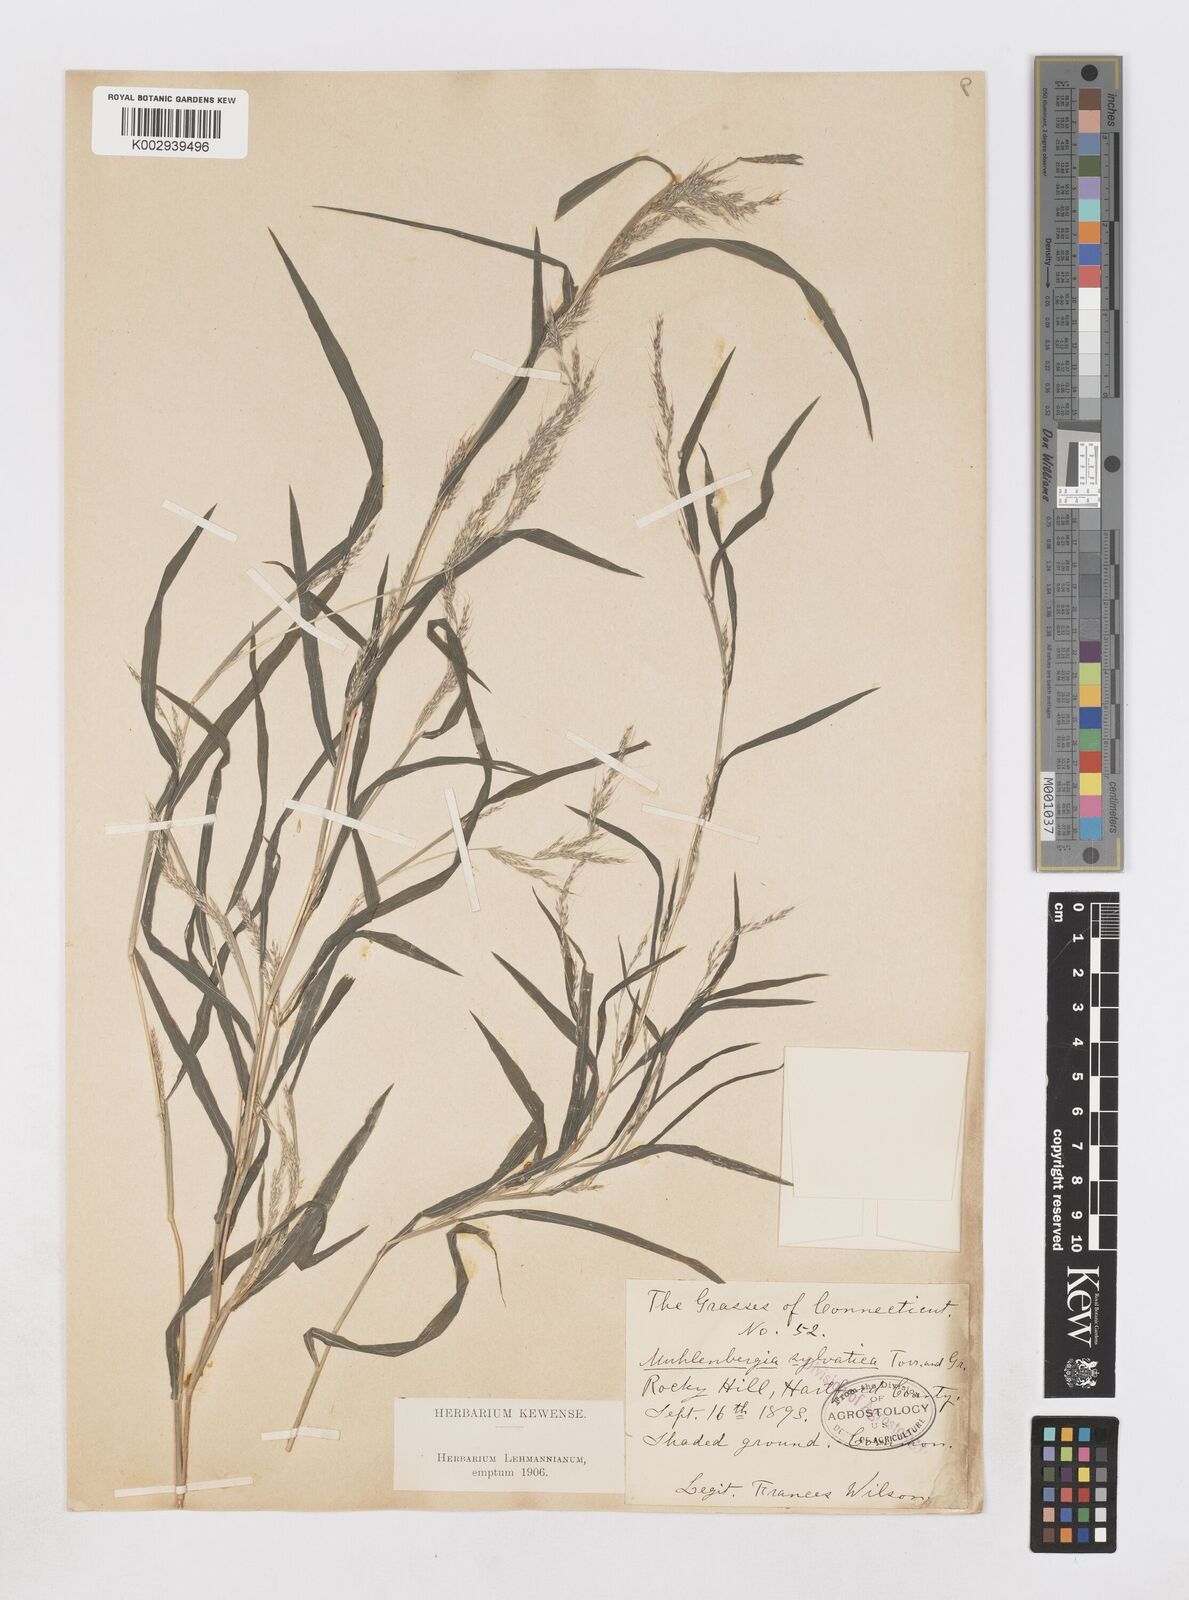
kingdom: Plantae
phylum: Tracheophyta
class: Liliopsida
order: Poales
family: Poaceae
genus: Muhlenbergia
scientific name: Muhlenbergia sylvatica
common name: Woodland muhly
